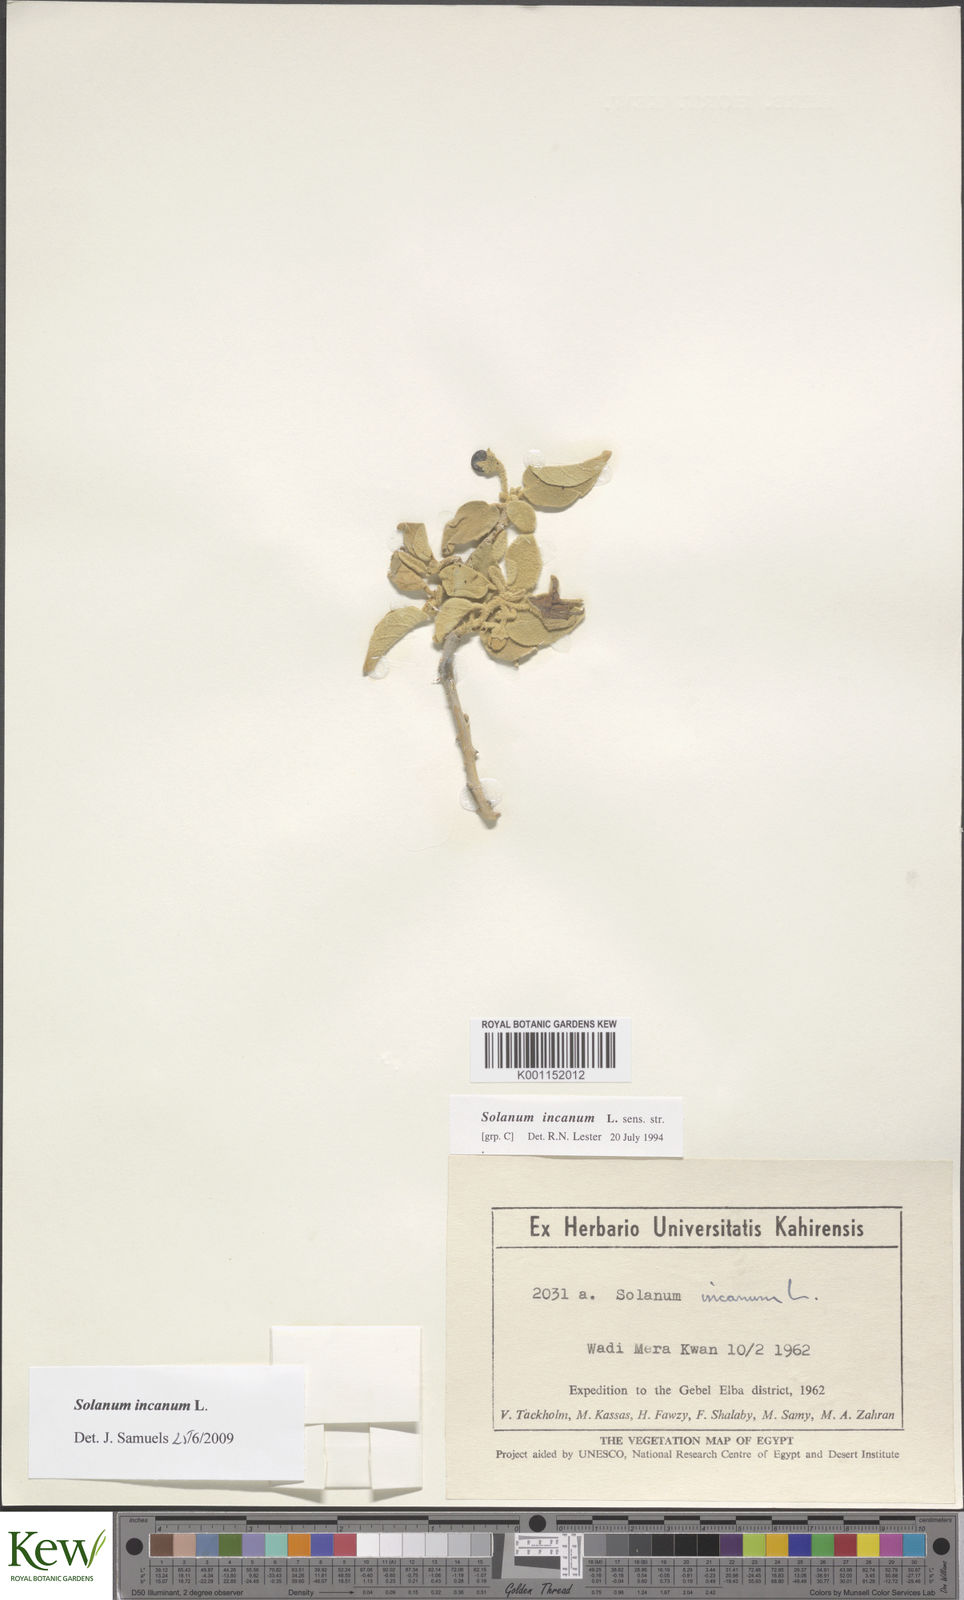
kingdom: Plantae
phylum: Tracheophyta
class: Magnoliopsida
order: Solanales
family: Solanaceae
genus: Solanum
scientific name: Solanum incanum
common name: Bitter apple
